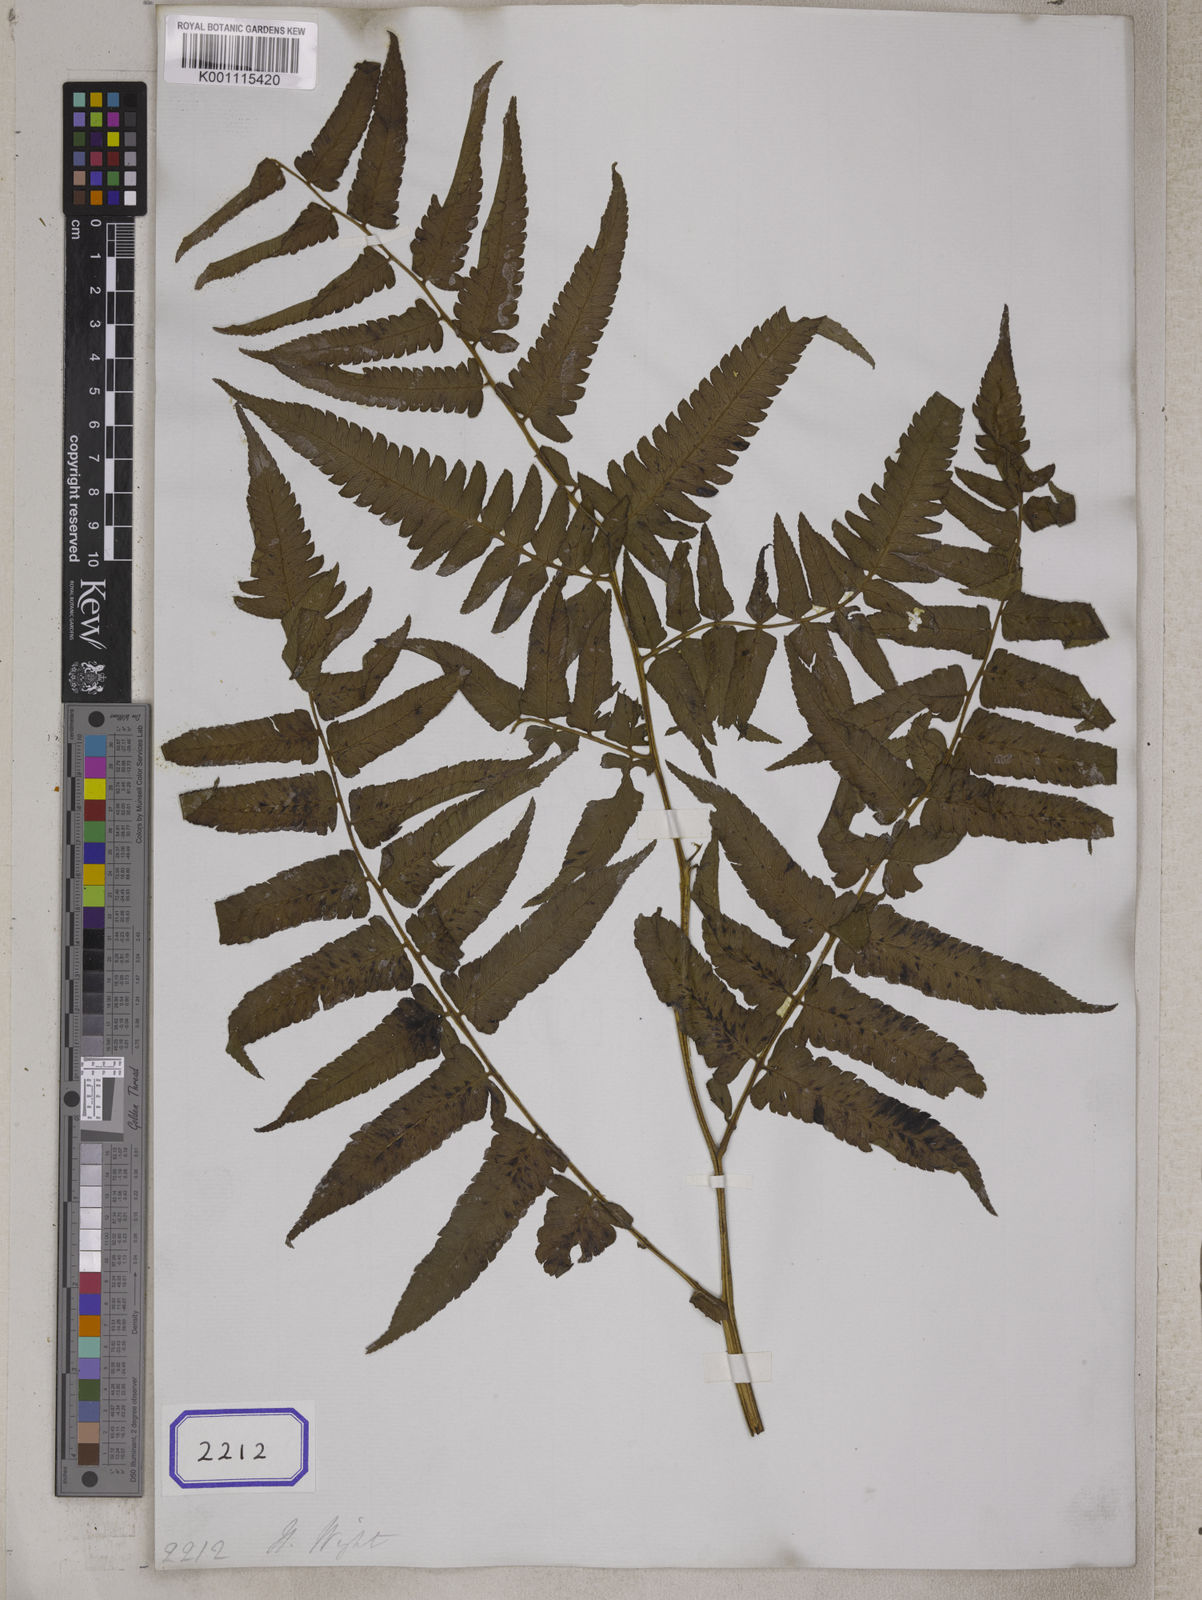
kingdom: Plantae
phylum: Tracheophyta
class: Polypodiopsida
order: Polypodiales
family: Athyriaceae
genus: Diplazium
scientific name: Diplazium esculentum
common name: Vegetable fern
